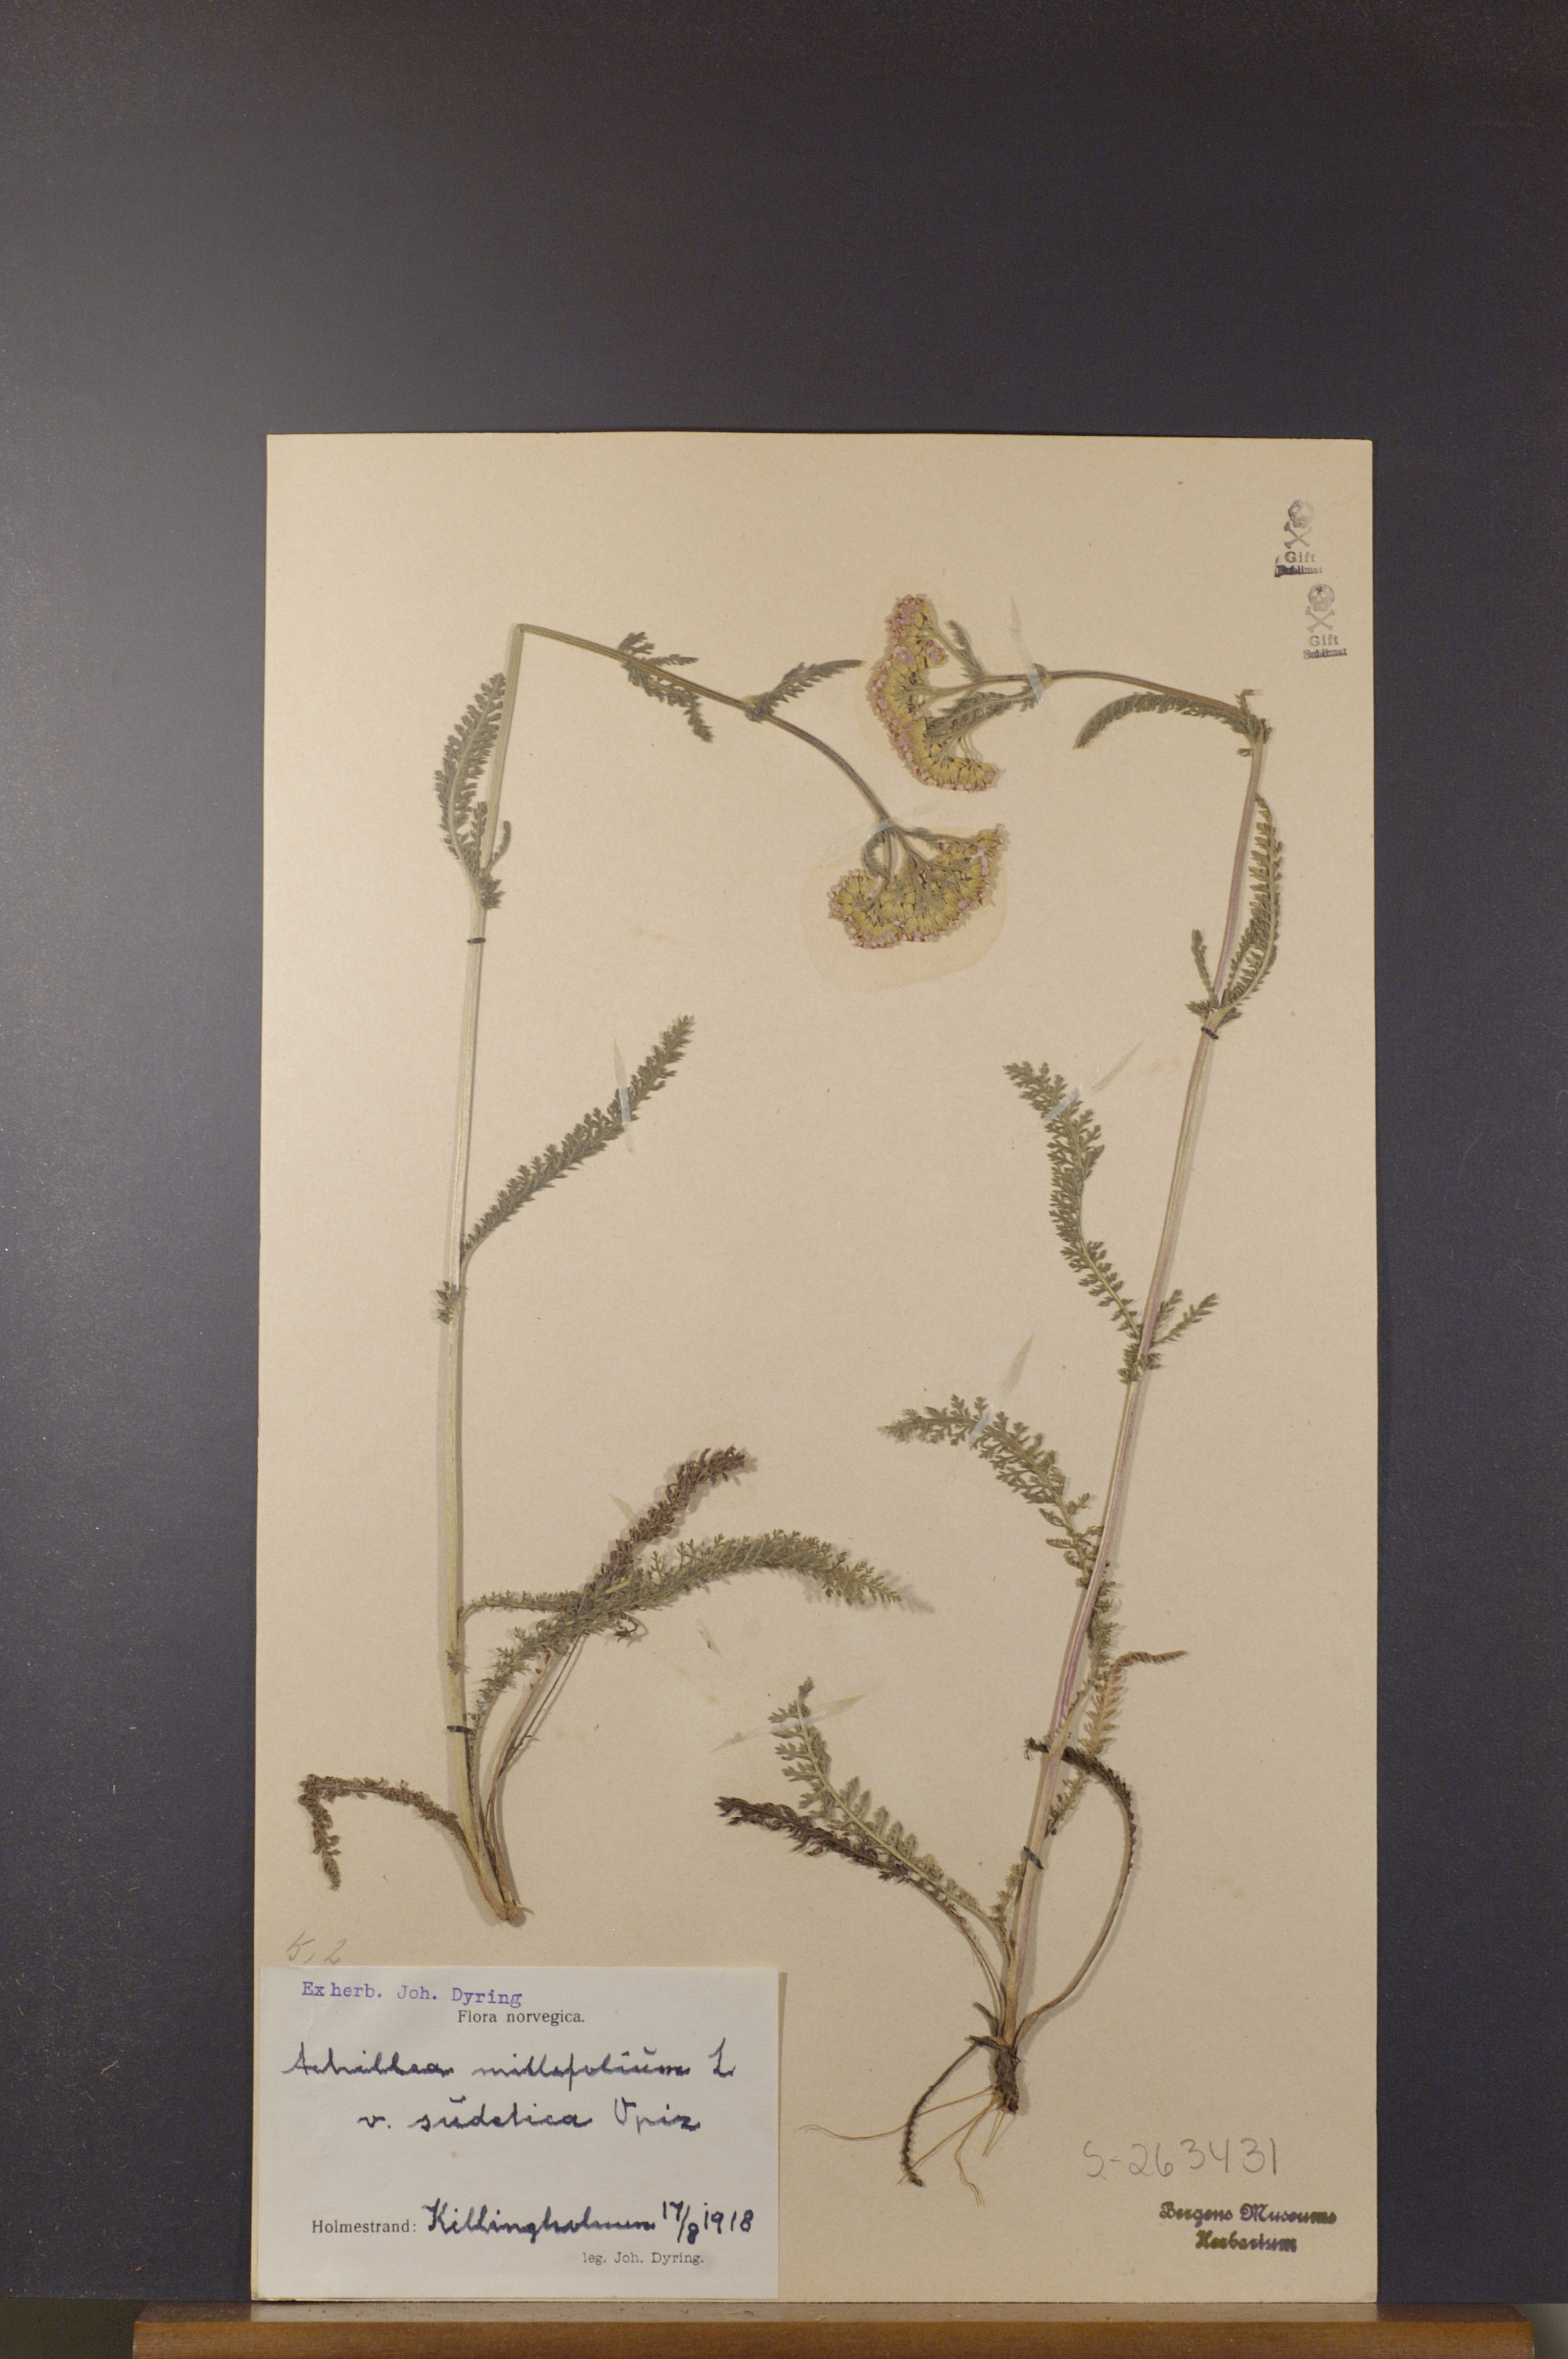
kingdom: Plantae
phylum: Tracheophyta
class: Magnoliopsida
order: Asterales
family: Asteraceae
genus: Achillea
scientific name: Achillea millefolium
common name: Yarrow
